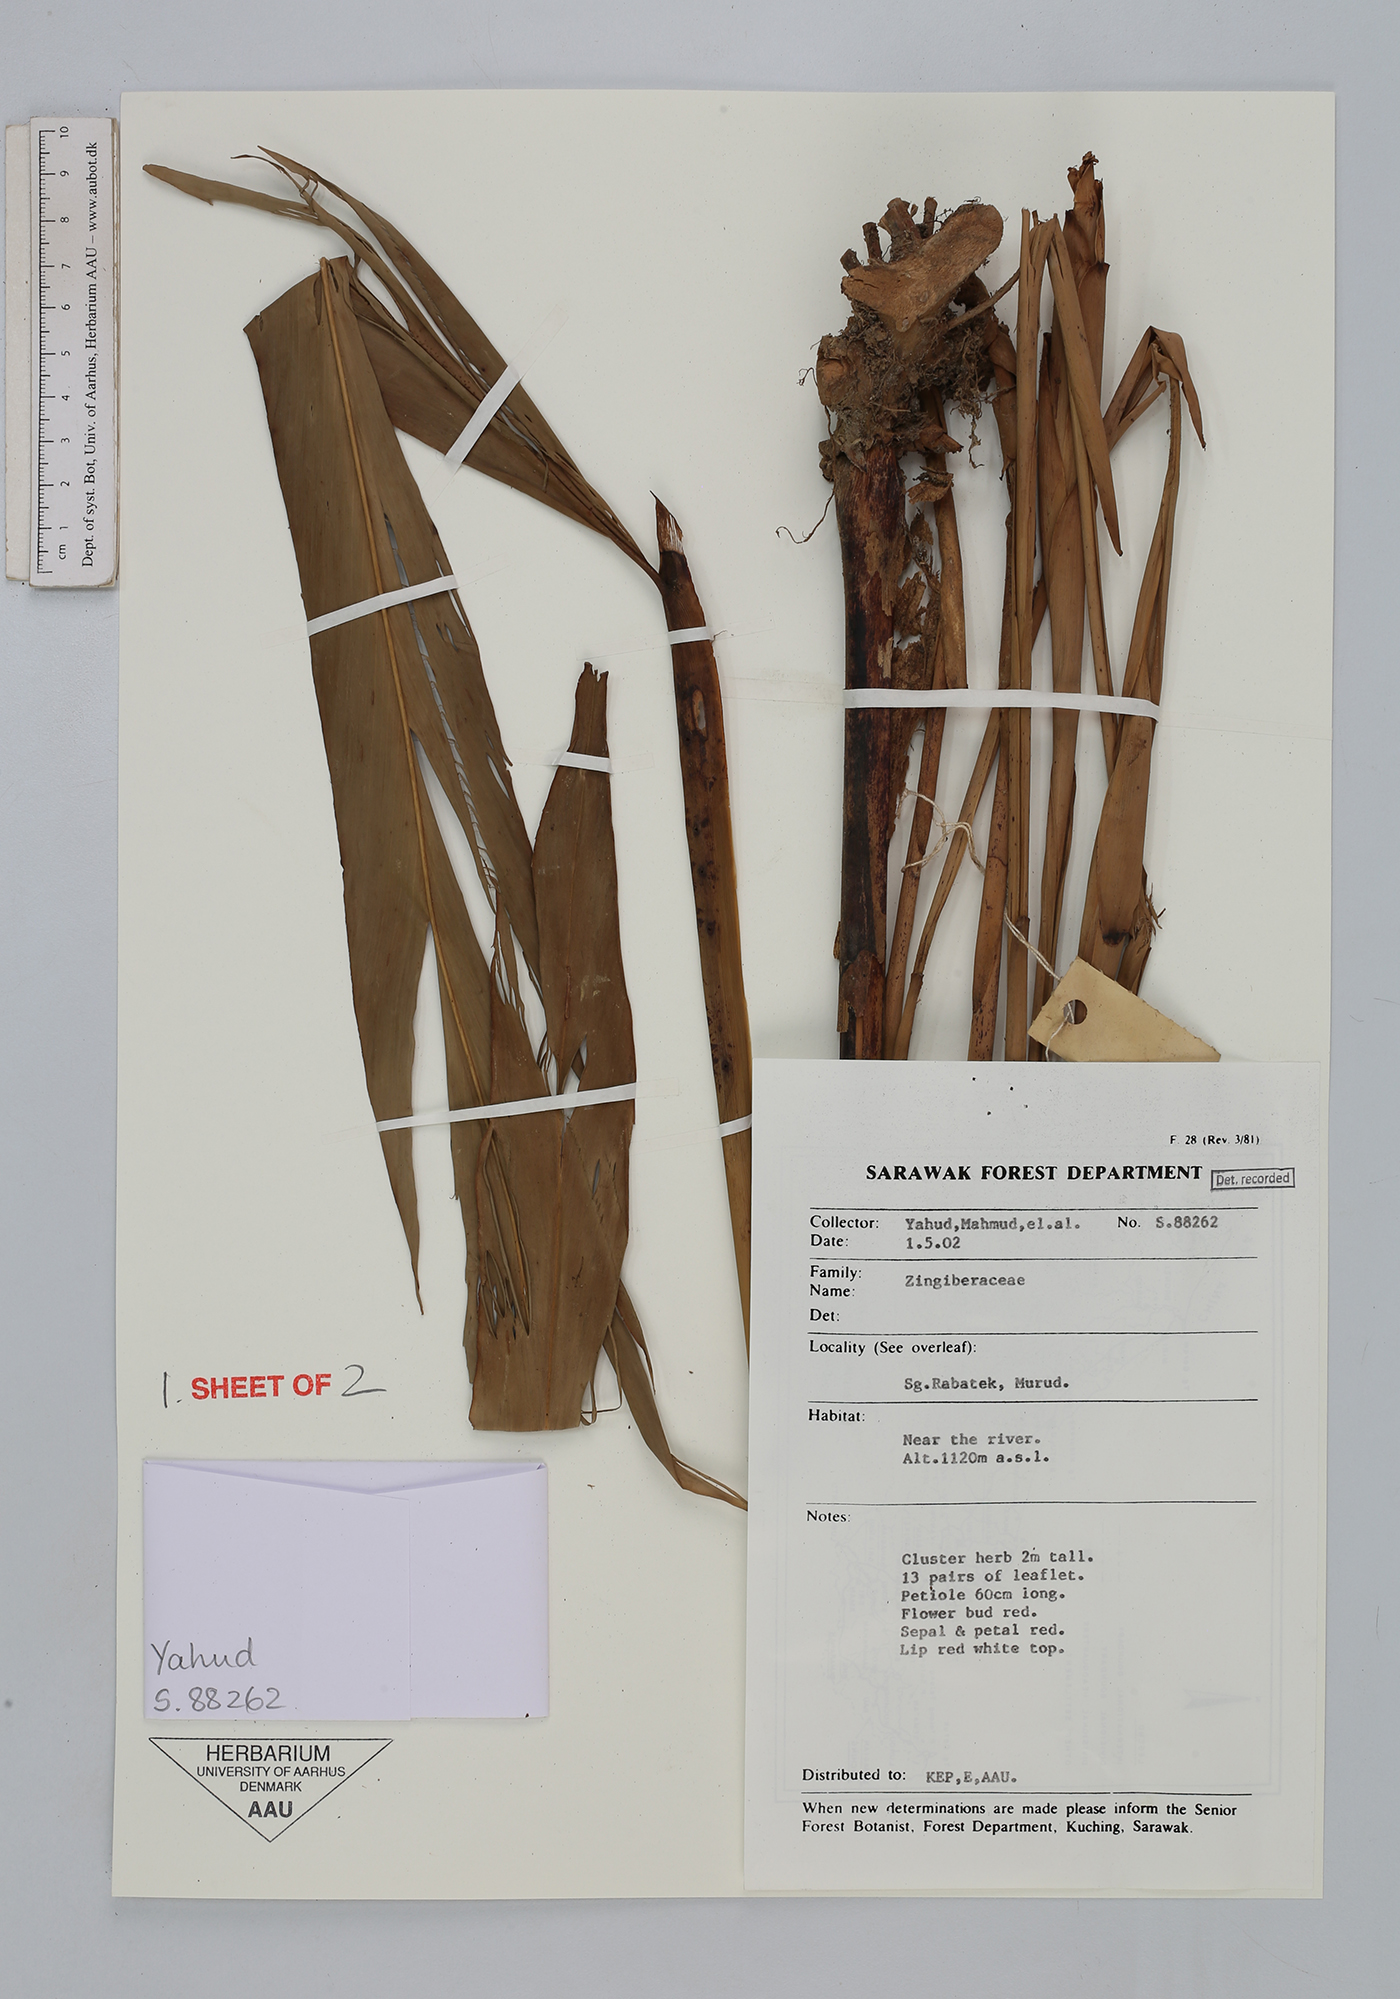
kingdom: Plantae
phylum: Tracheophyta
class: Liliopsida
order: Zingiberales
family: Zingiberaceae
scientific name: Zingiberaceae
